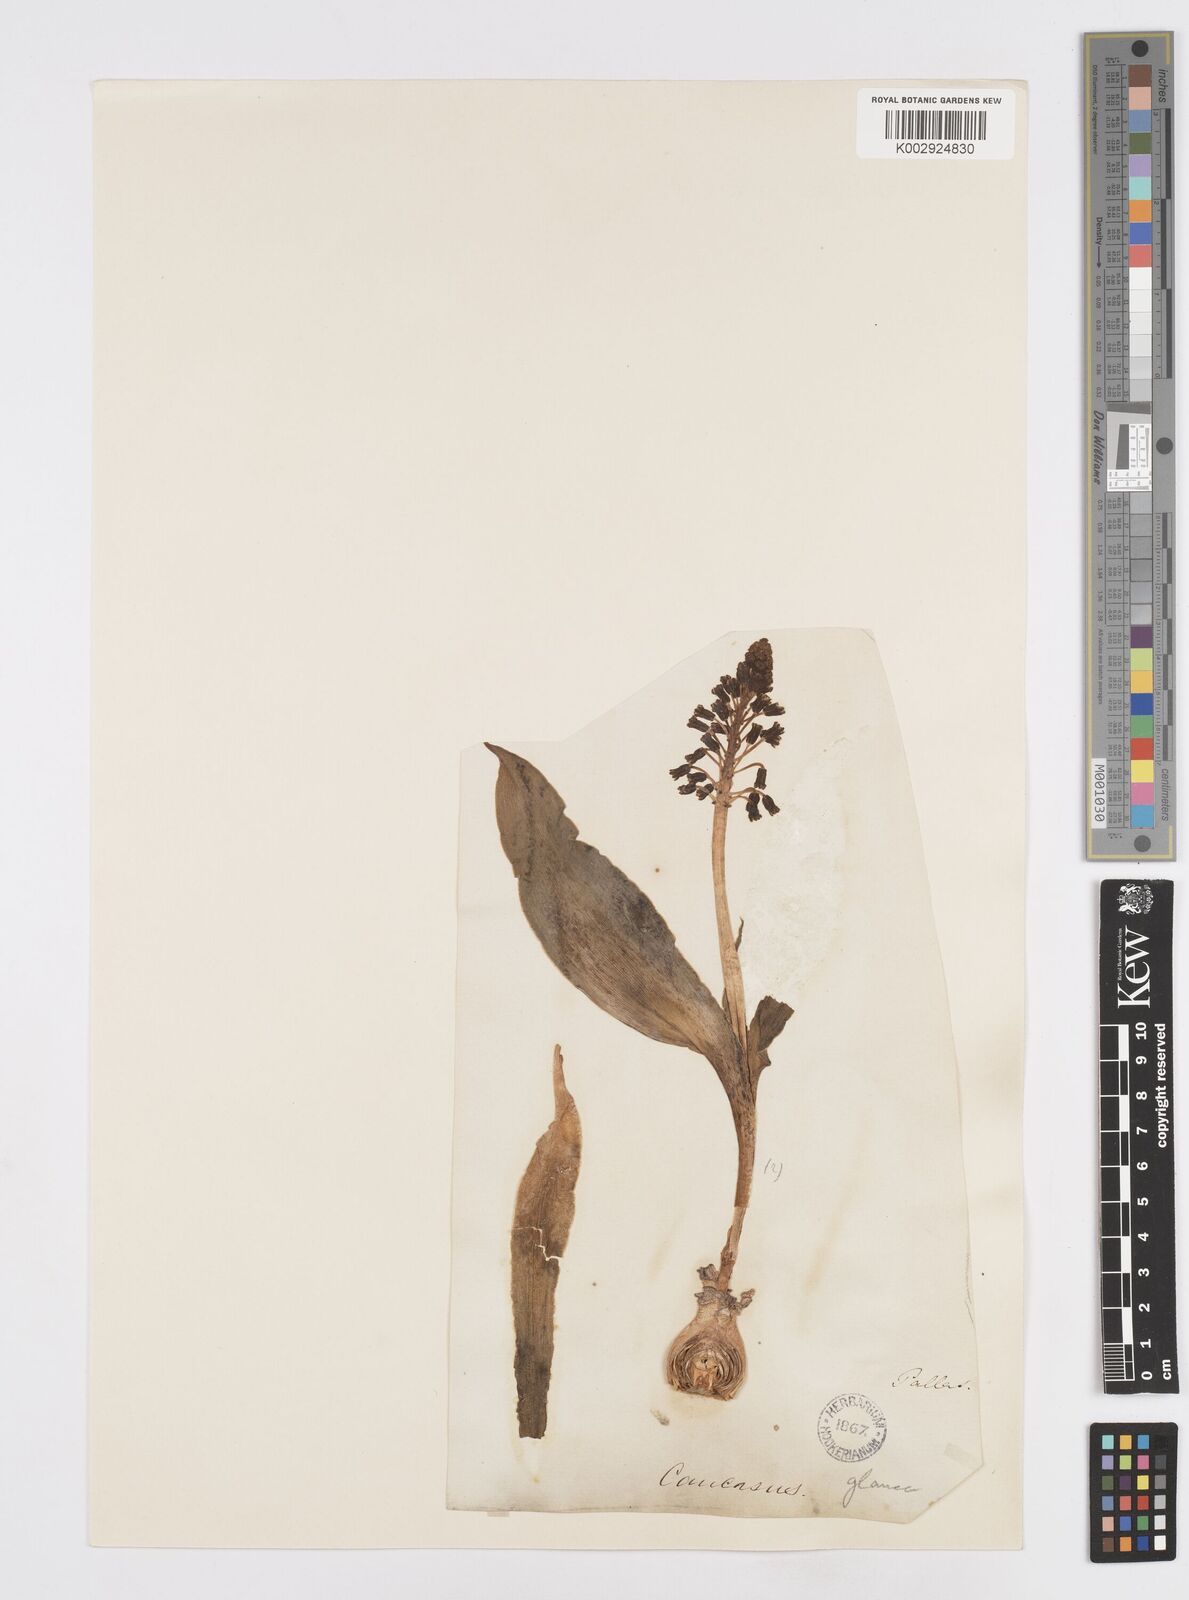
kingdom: Plantae
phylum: Tracheophyta
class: Liliopsida
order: Asparagales
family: Asparagaceae
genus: Bellevalia
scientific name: Bellevalia
